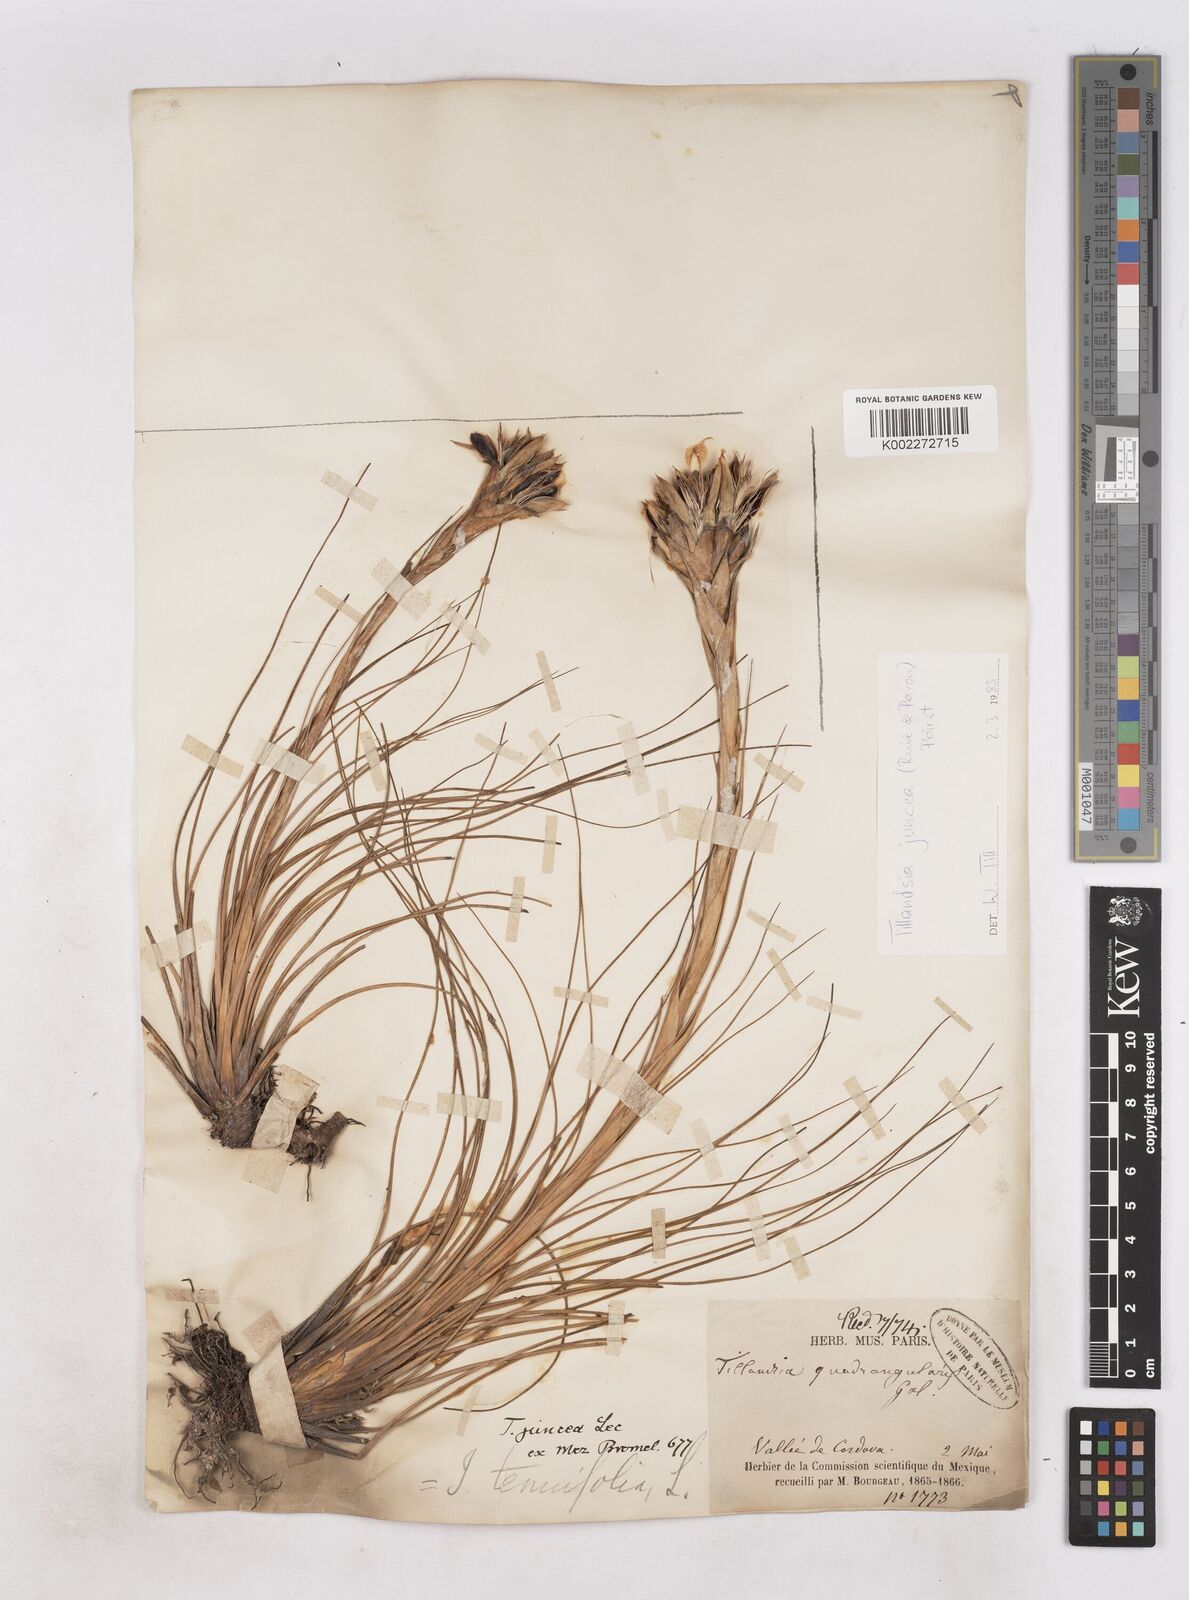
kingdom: Plantae
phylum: Tracheophyta
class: Liliopsida
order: Poales
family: Bromeliaceae
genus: Tillandsia
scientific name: Tillandsia juncea
